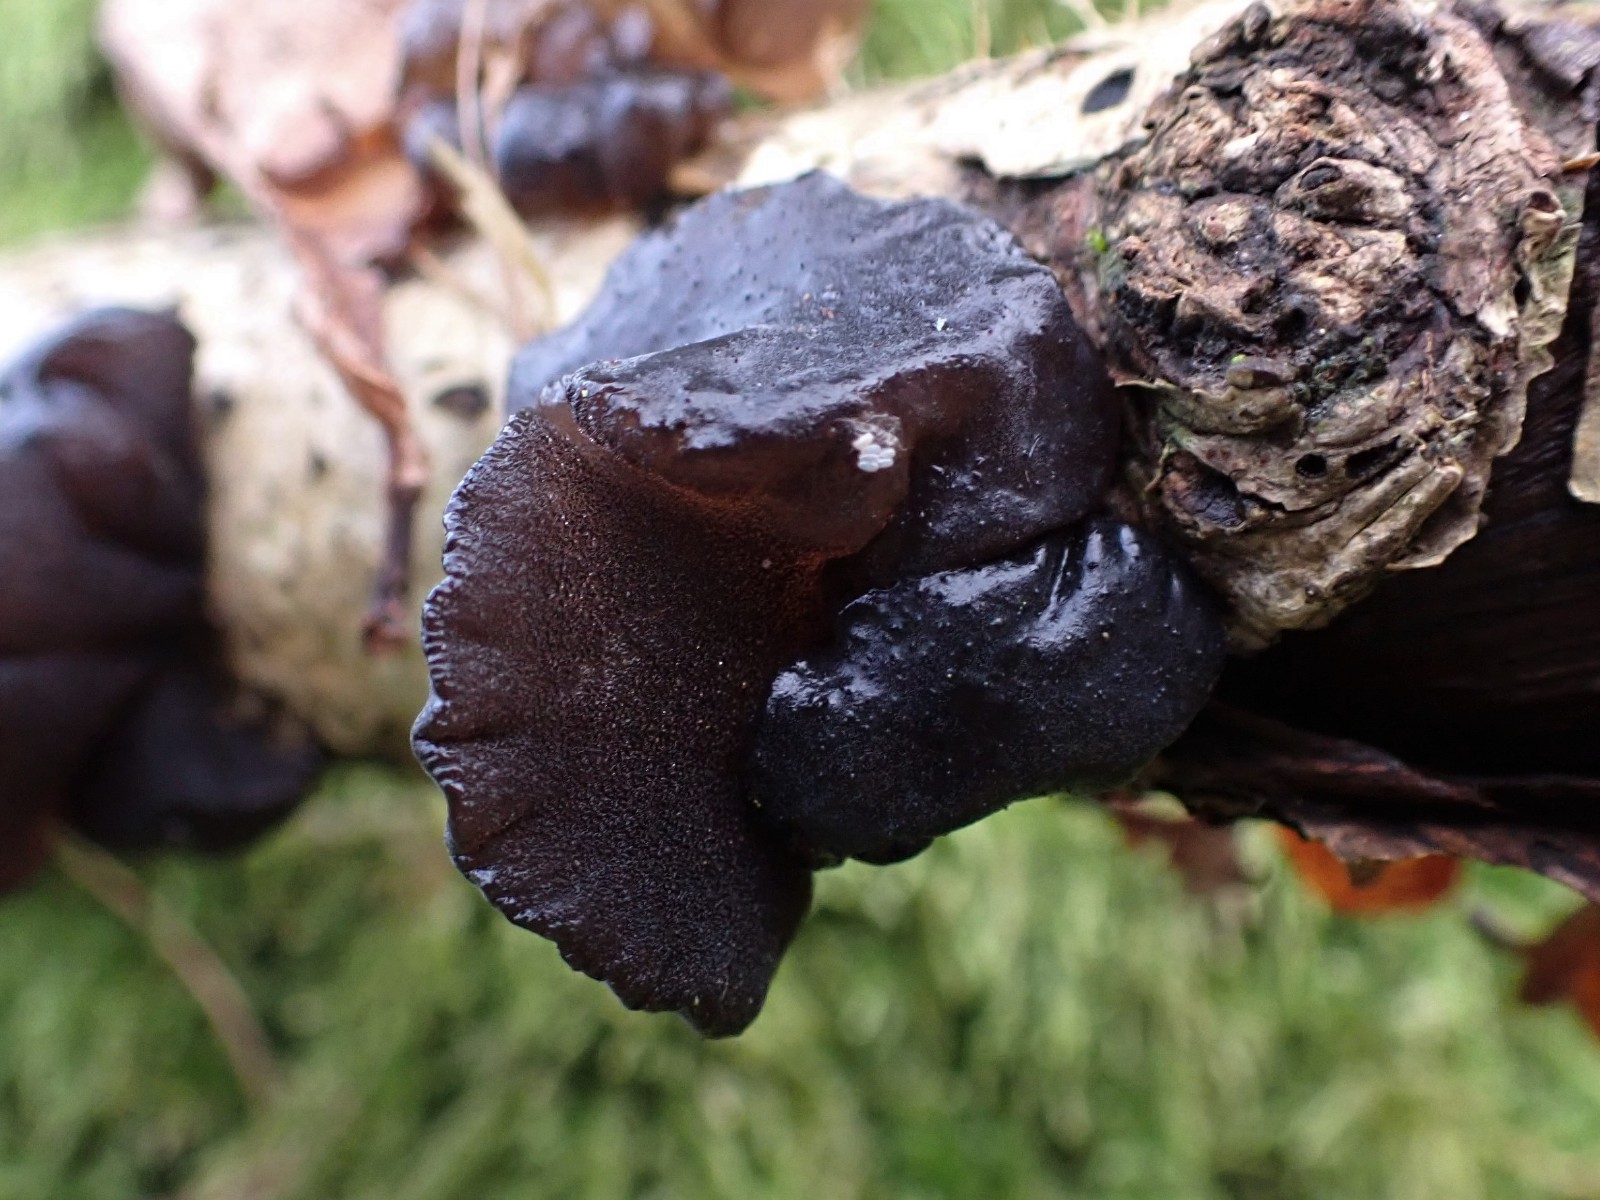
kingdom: Fungi
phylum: Basidiomycota
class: Agaricomycetes
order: Auriculariales
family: Auriculariaceae
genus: Exidia
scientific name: Exidia glandulosa
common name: ege-bævretop
